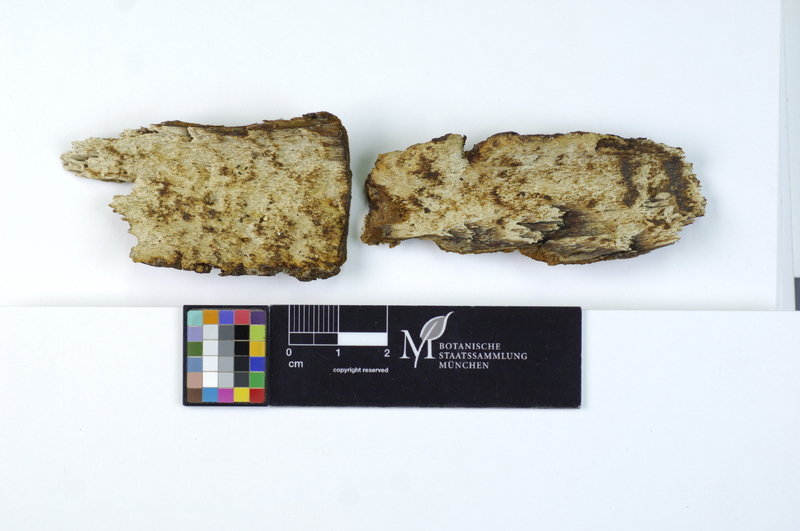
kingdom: Fungi
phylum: Basidiomycota
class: Agaricomycetes
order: Hymenochaetales
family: Hymenochaetaceae
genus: Inonotus
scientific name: Inonotus hastifer
